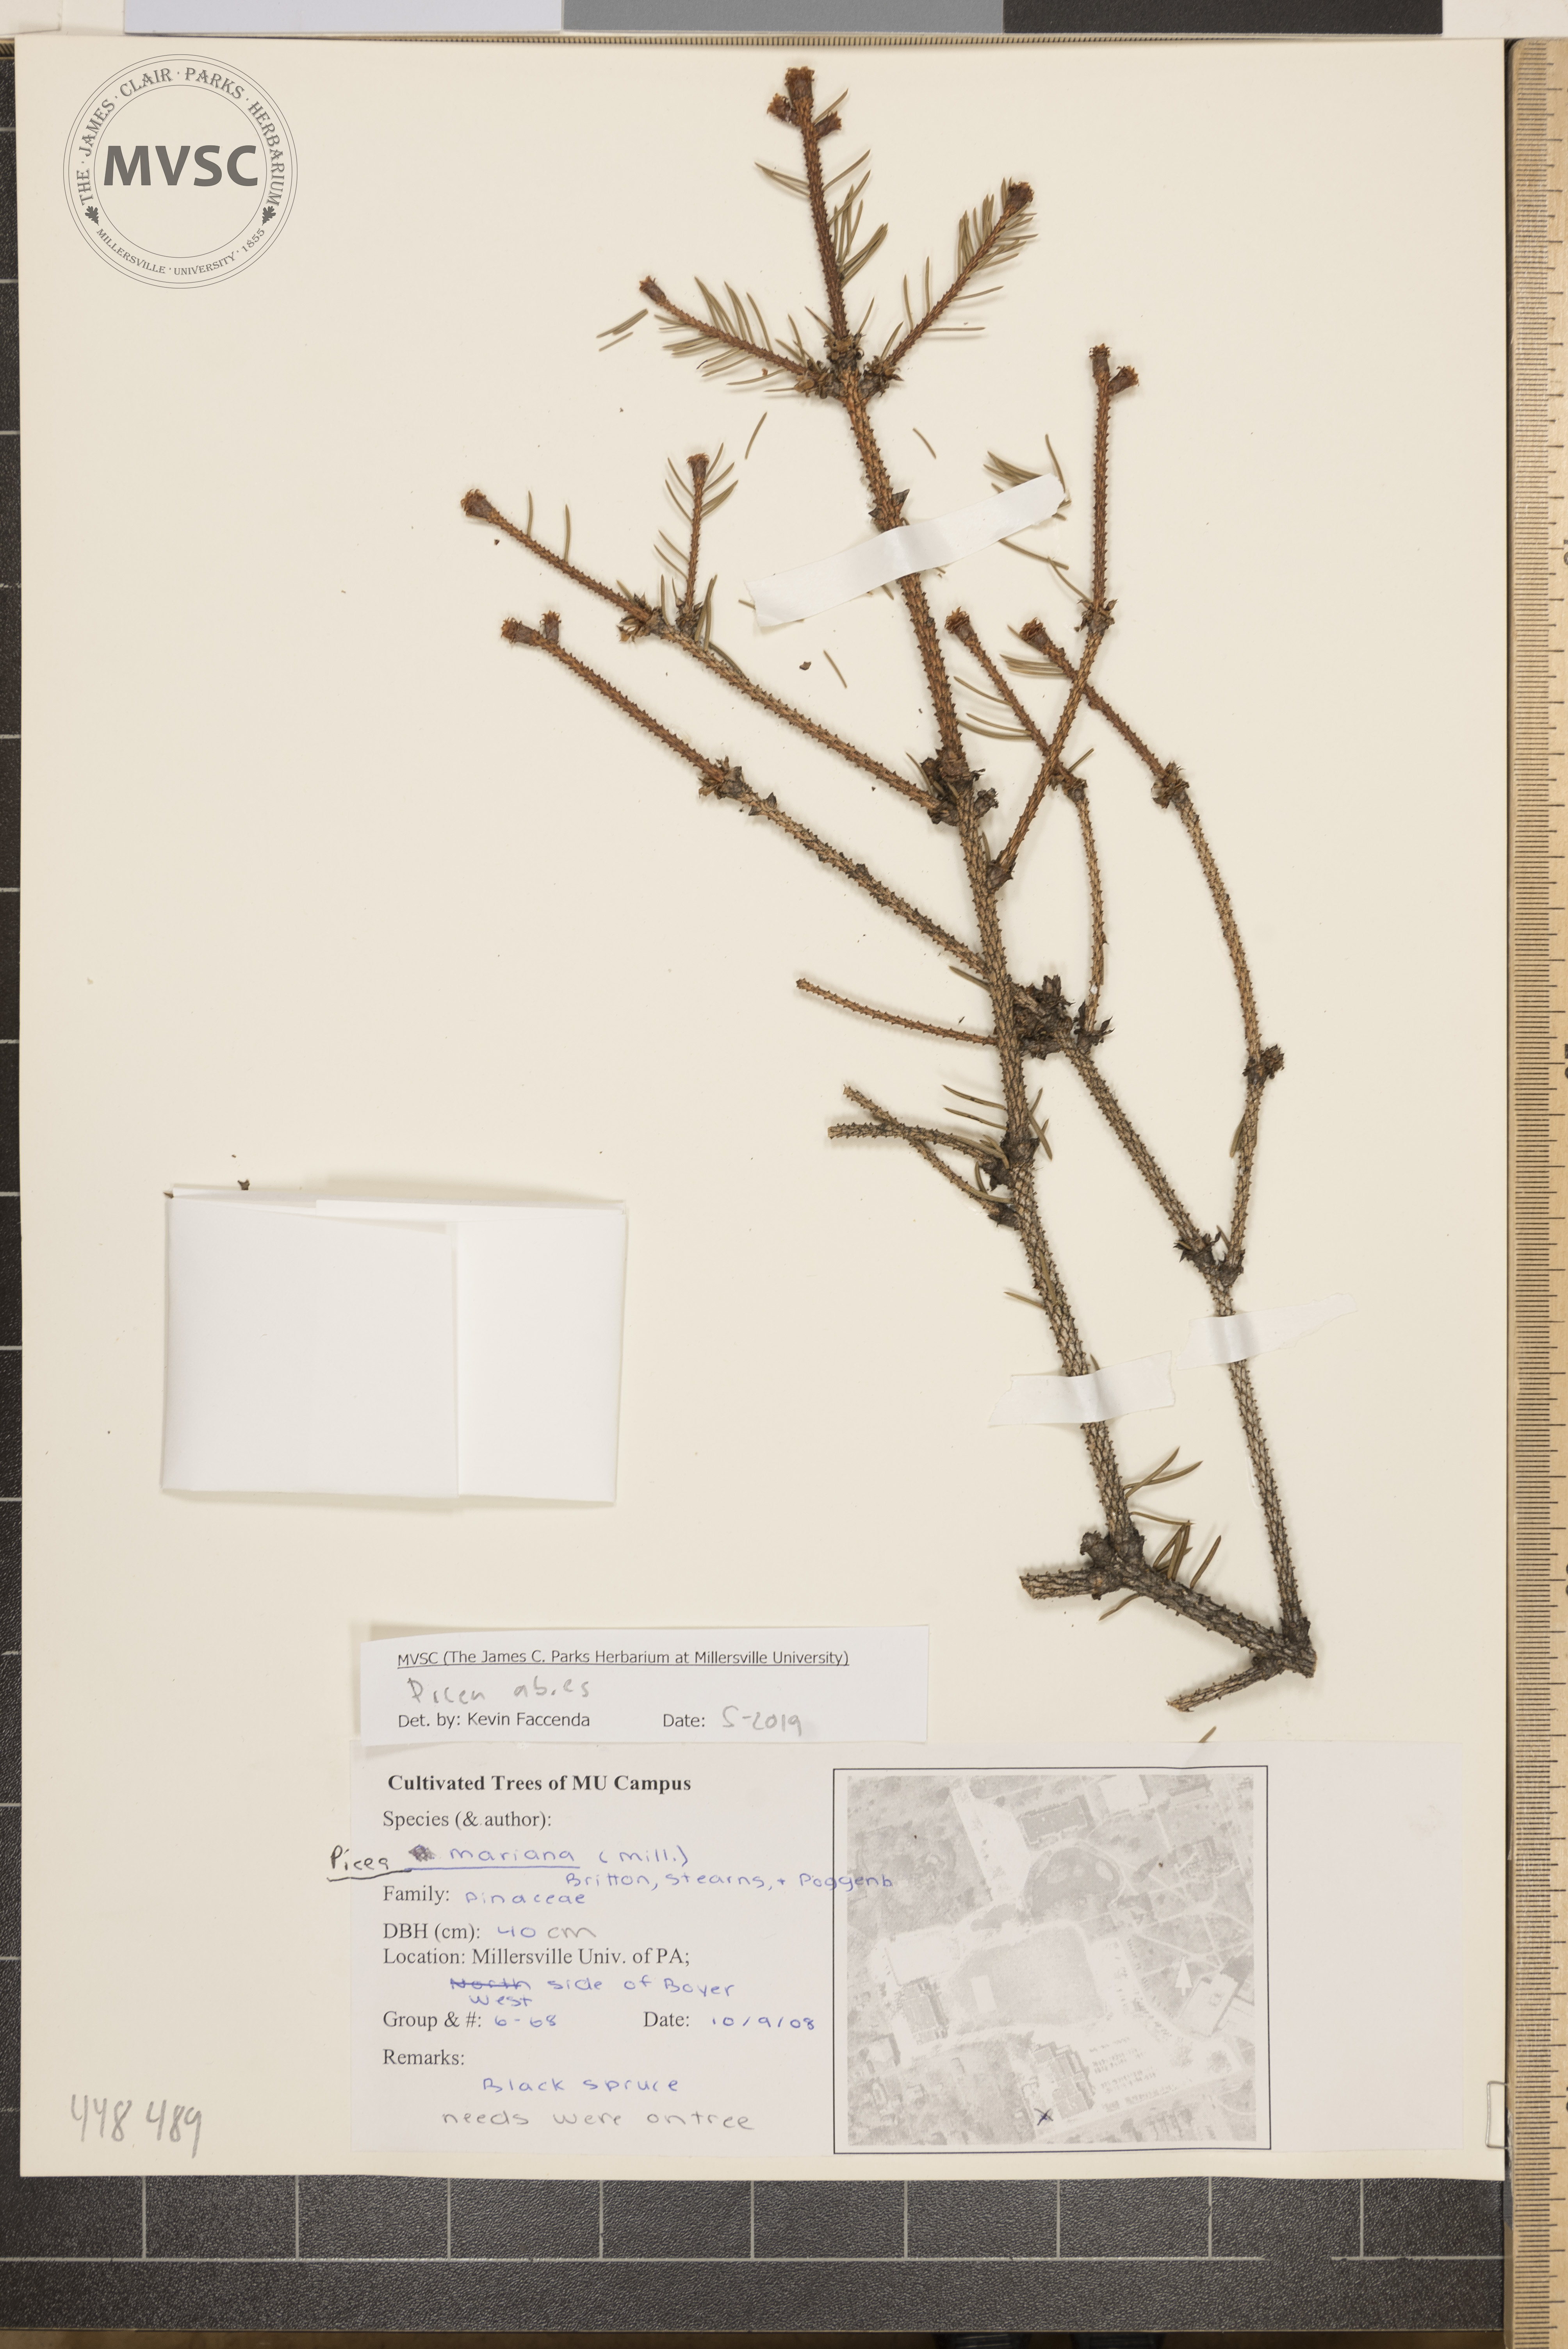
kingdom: Plantae
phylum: Tracheophyta
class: Pinopsida
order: Pinales
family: Pinaceae
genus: Picea
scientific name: Picea abies
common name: Norway spruce
